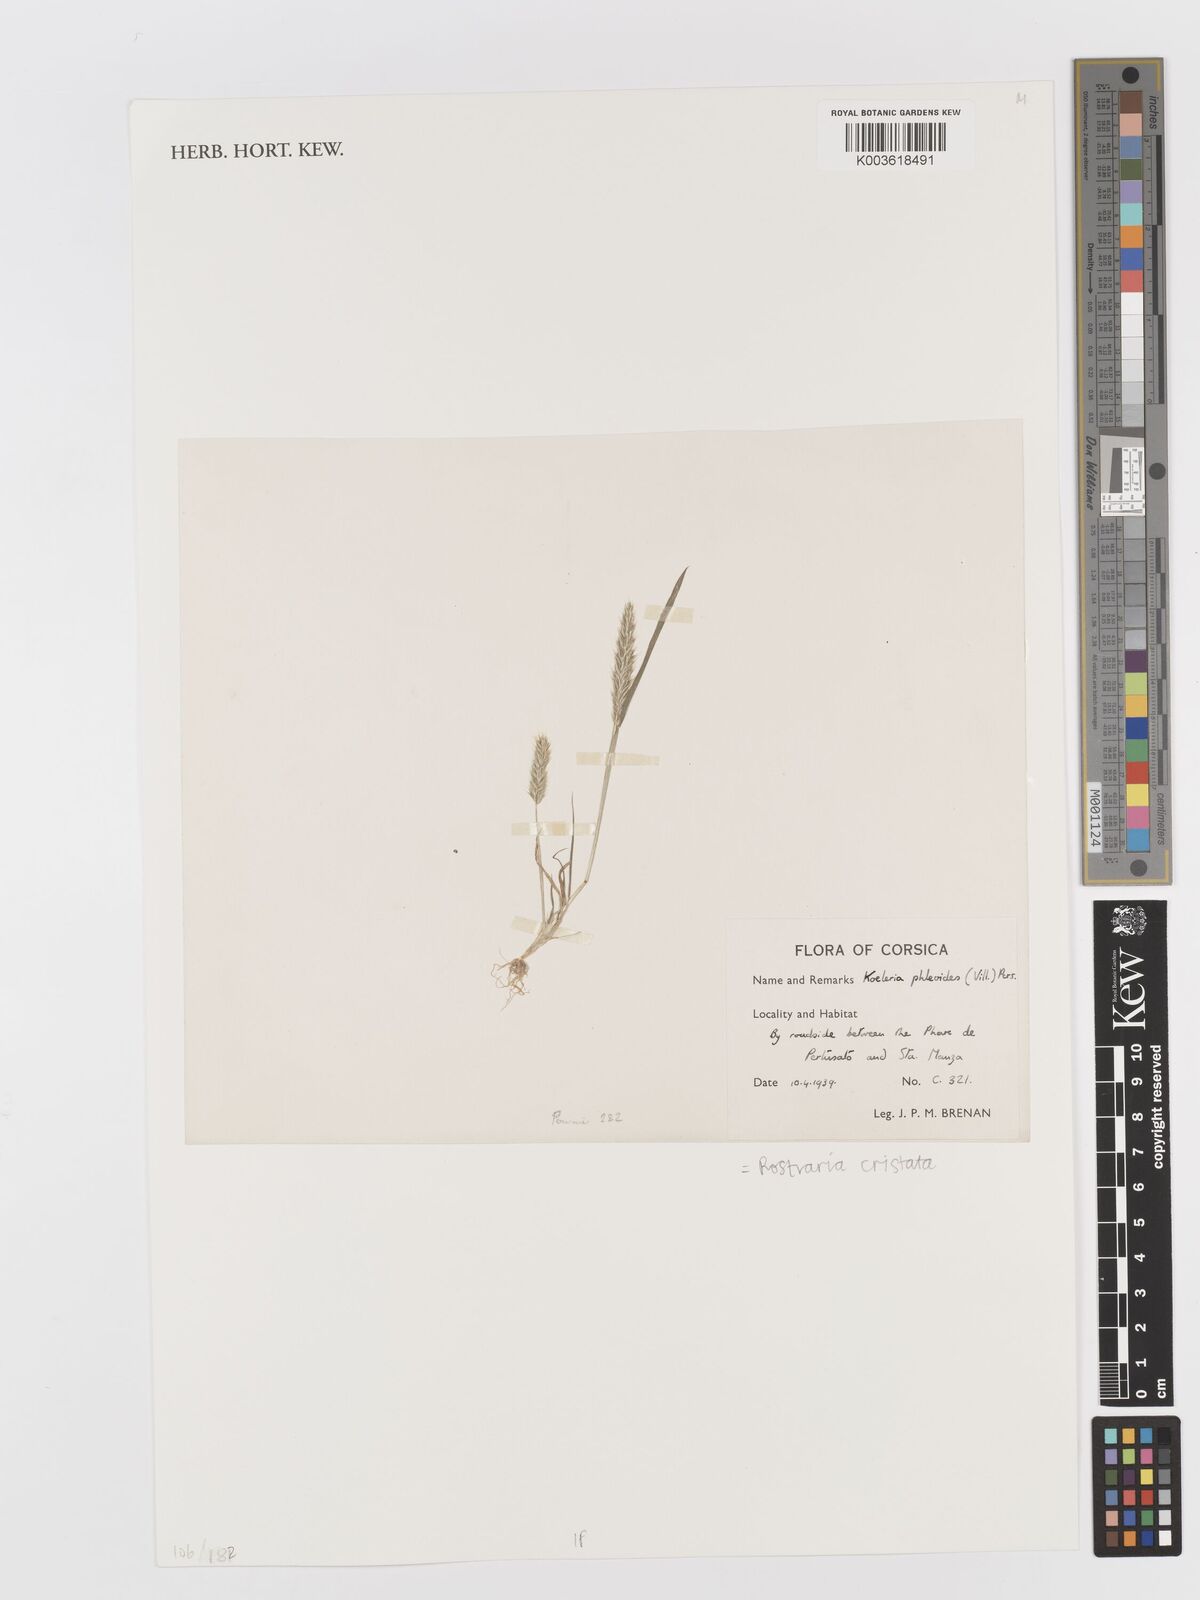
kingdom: Plantae
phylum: Tracheophyta
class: Liliopsida
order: Poales
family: Poaceae
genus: Rostraria
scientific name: Rostraria cristata
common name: Mediterranean hair-grass
